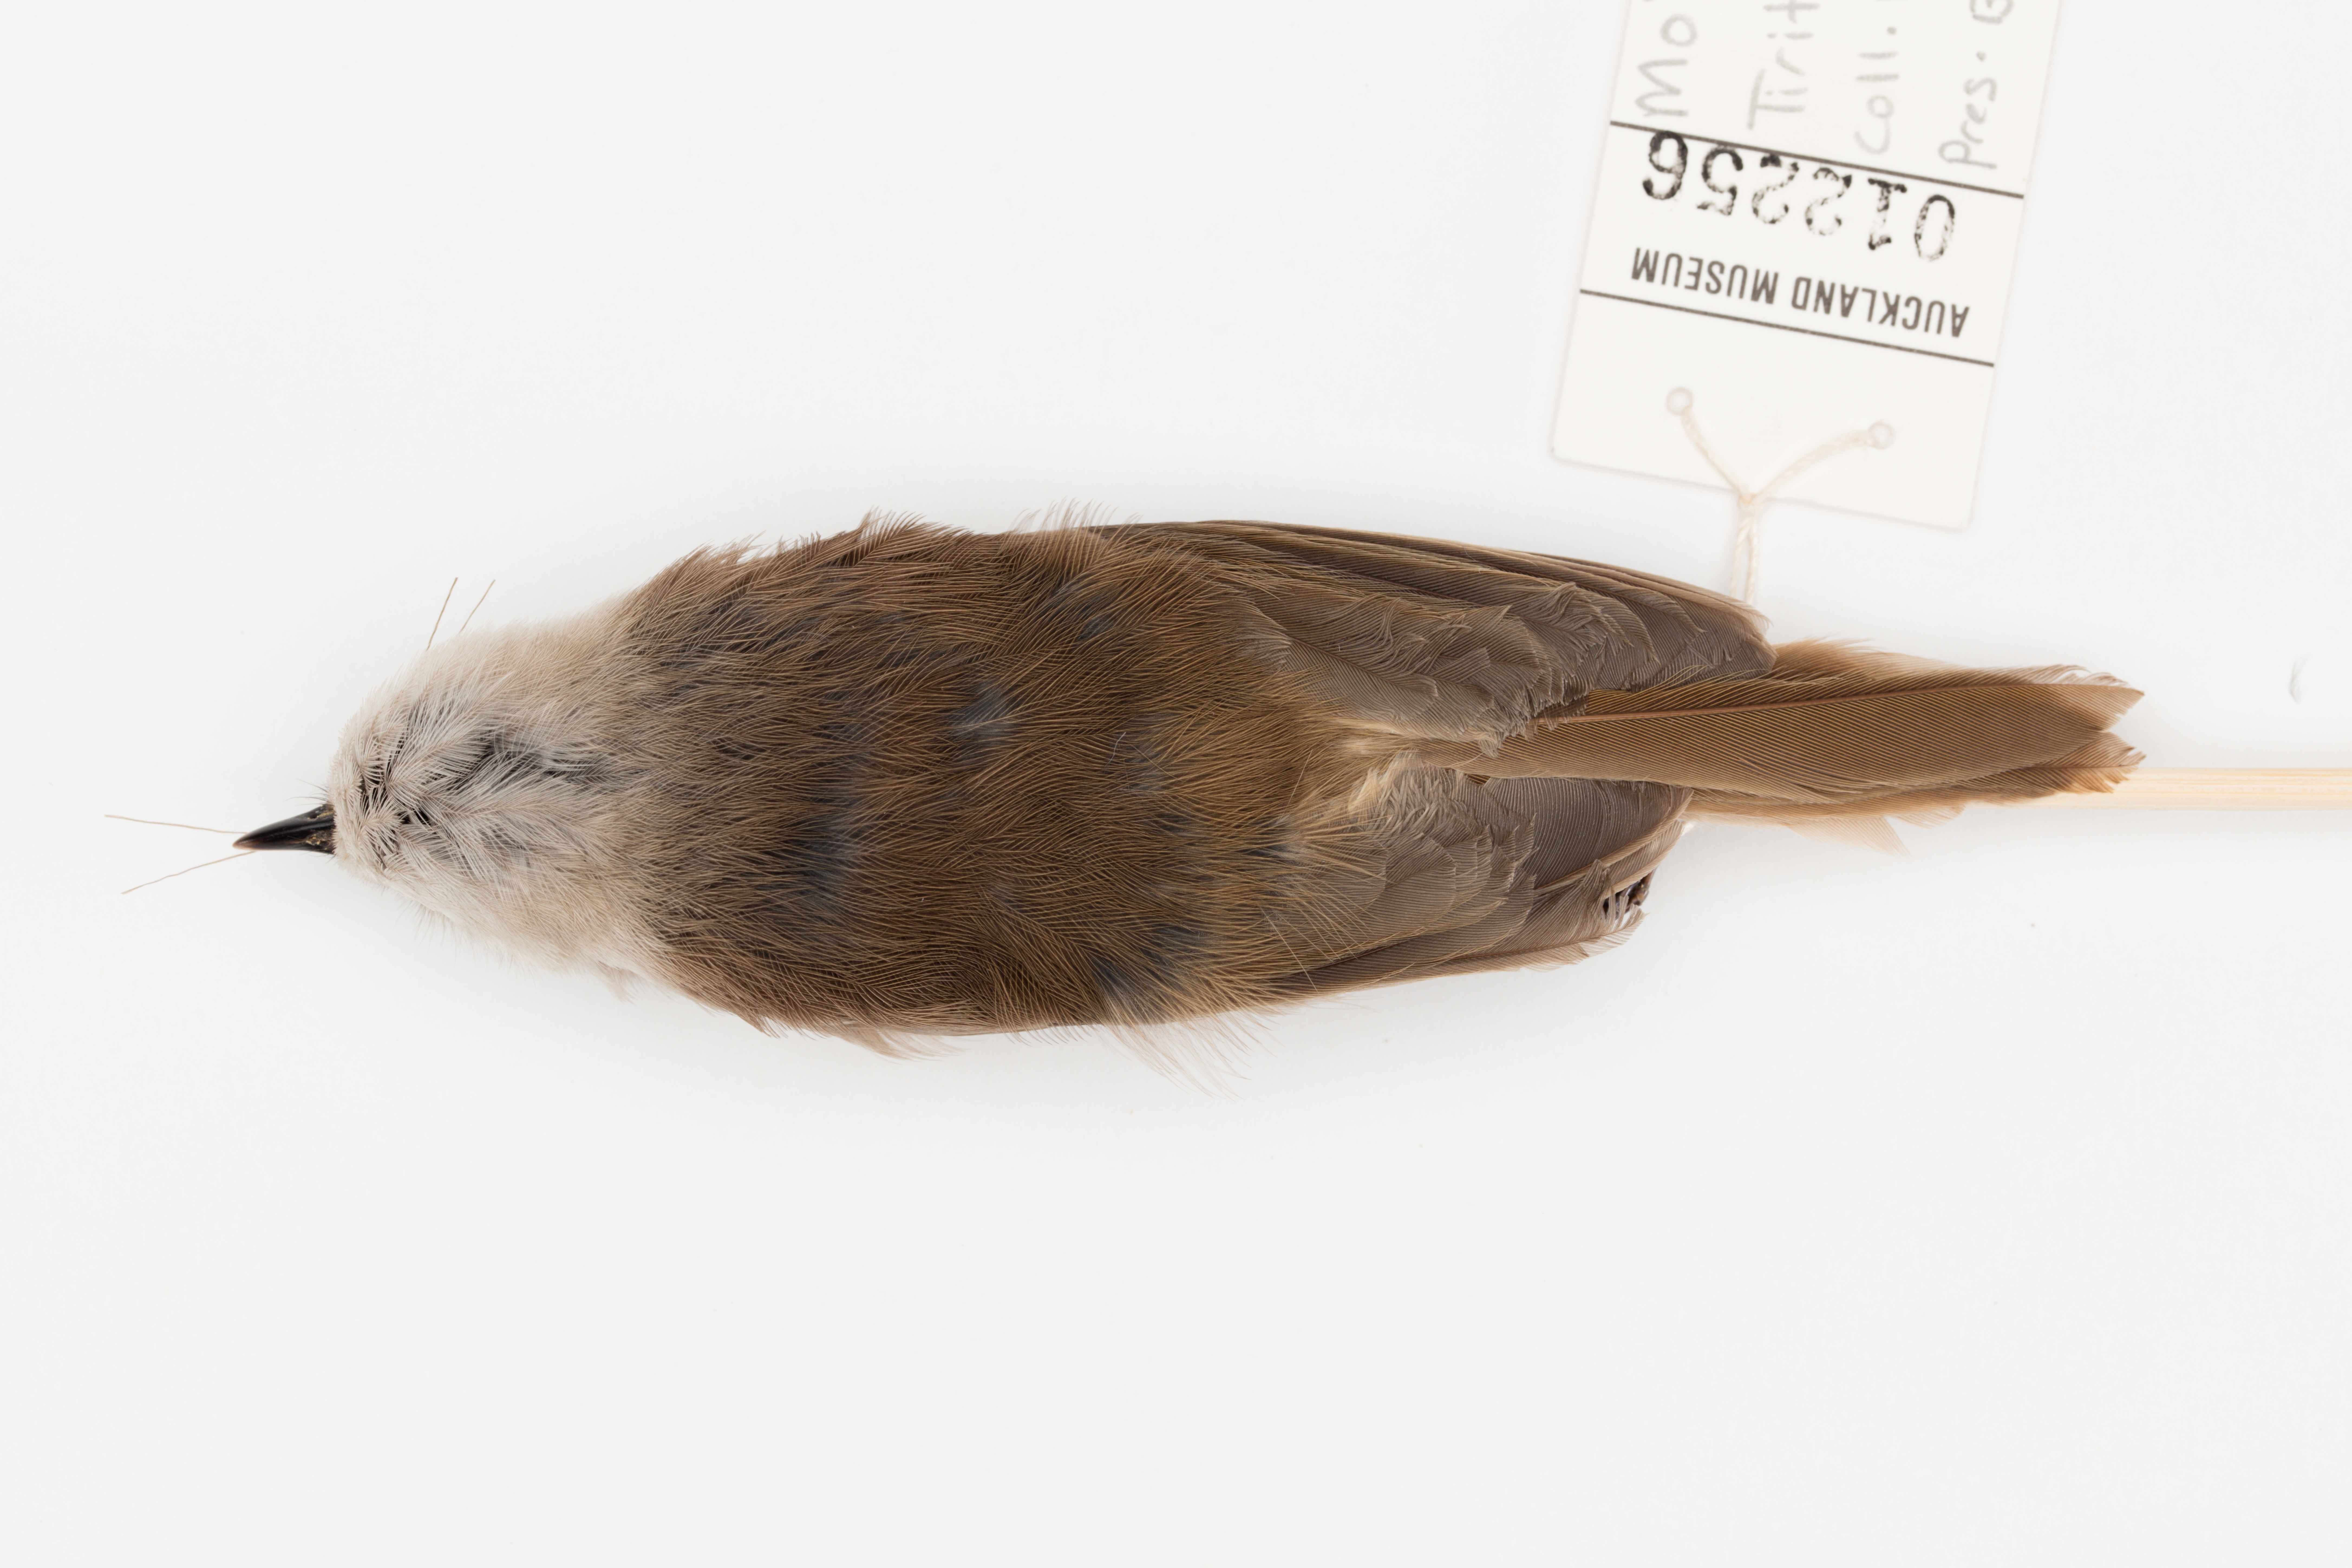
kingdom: Animalia
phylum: Chordata
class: Aves
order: Passeriformes
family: Acanthizidae
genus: Mohoua
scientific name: Mohoua albicilla
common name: Whitehead
